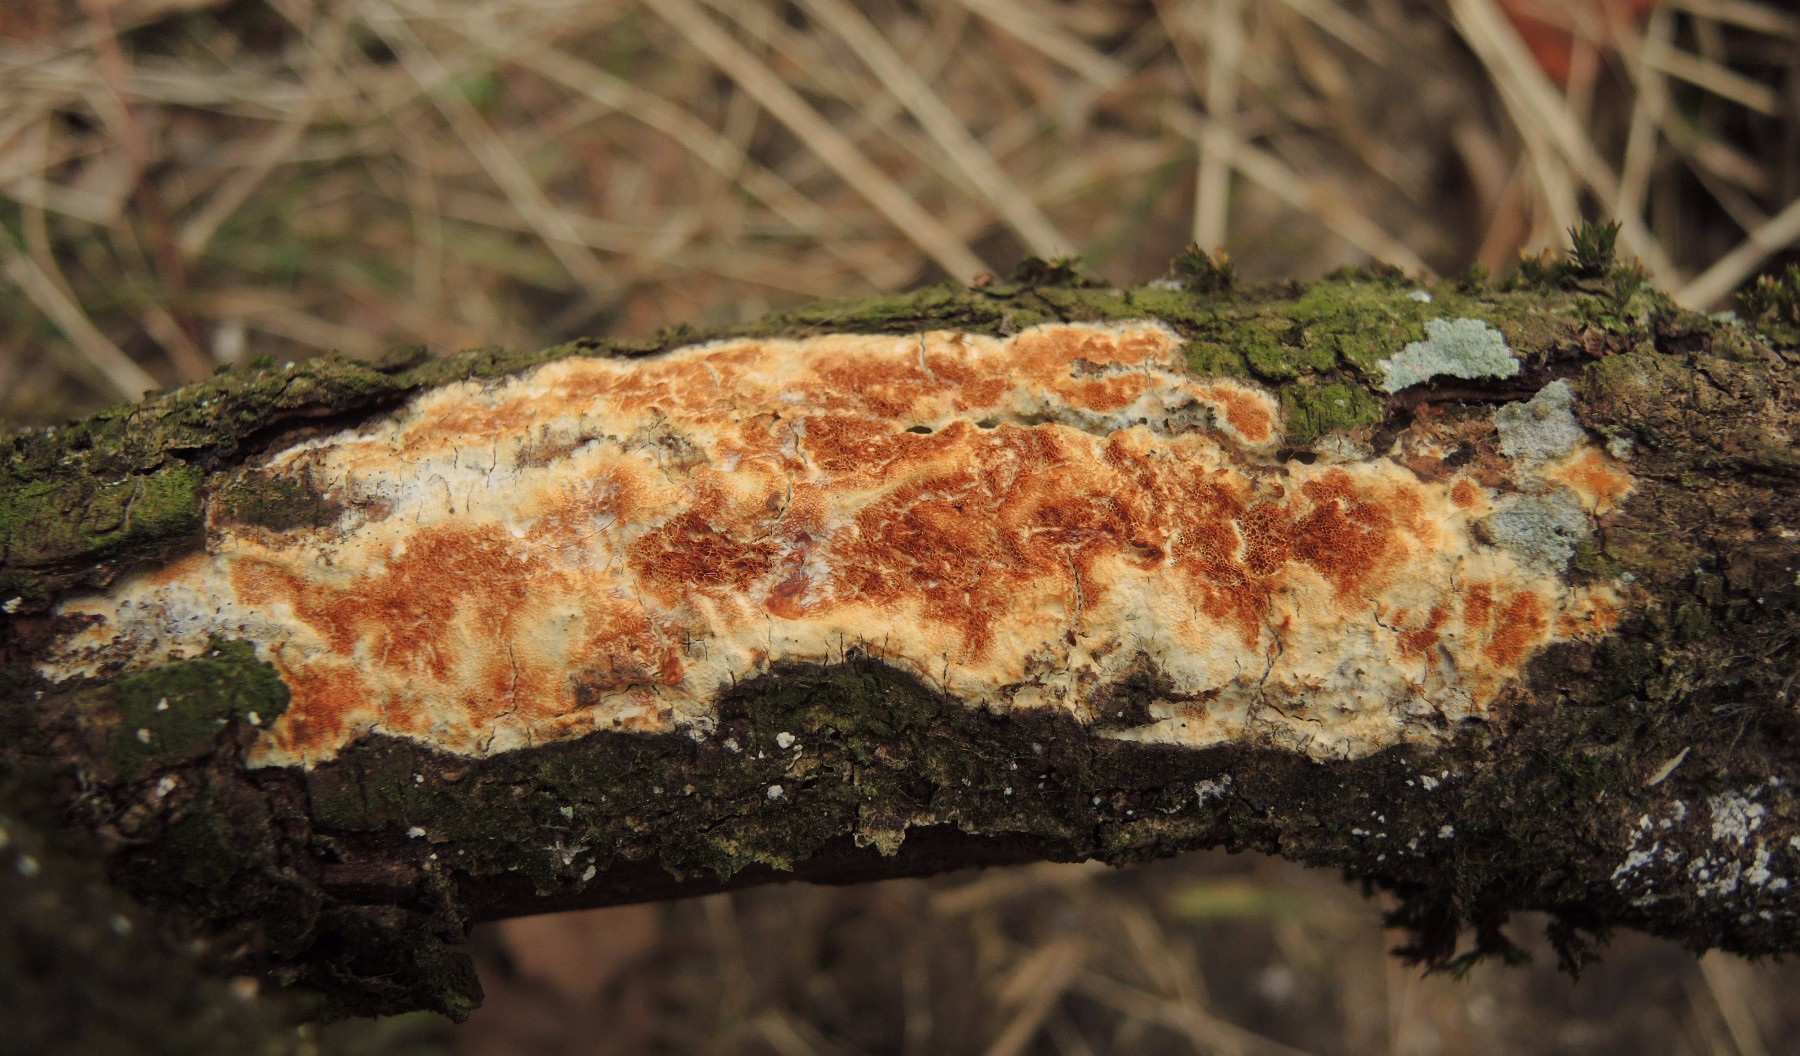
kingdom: Fungi
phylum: Basidiomycota
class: Agaricomycetes
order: Polyporales
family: Irpicaceae
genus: Resiniporus
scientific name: Resiniporus resinascens
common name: trist pastelporesvamp
